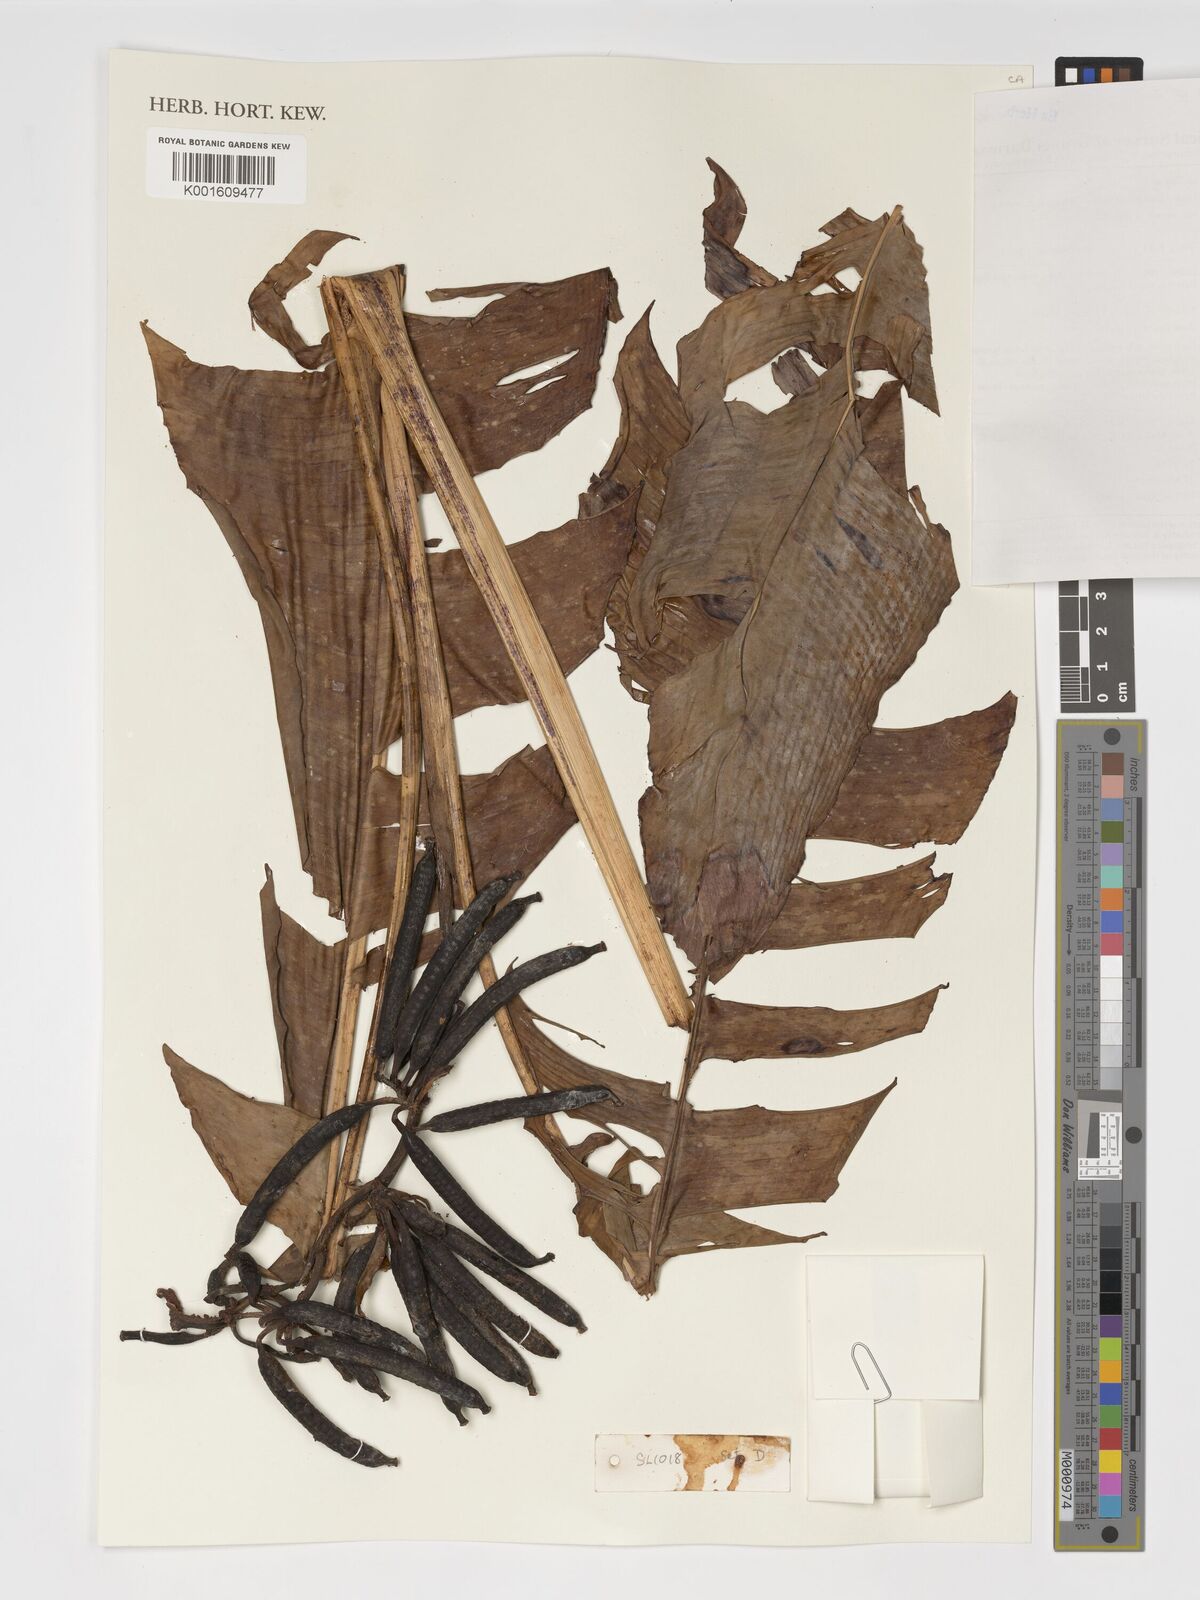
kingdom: Plantae
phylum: Tracheophyta
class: Liliopsida
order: Zingiberales
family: Musaceae
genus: Musa
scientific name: Musa lawitiensis
